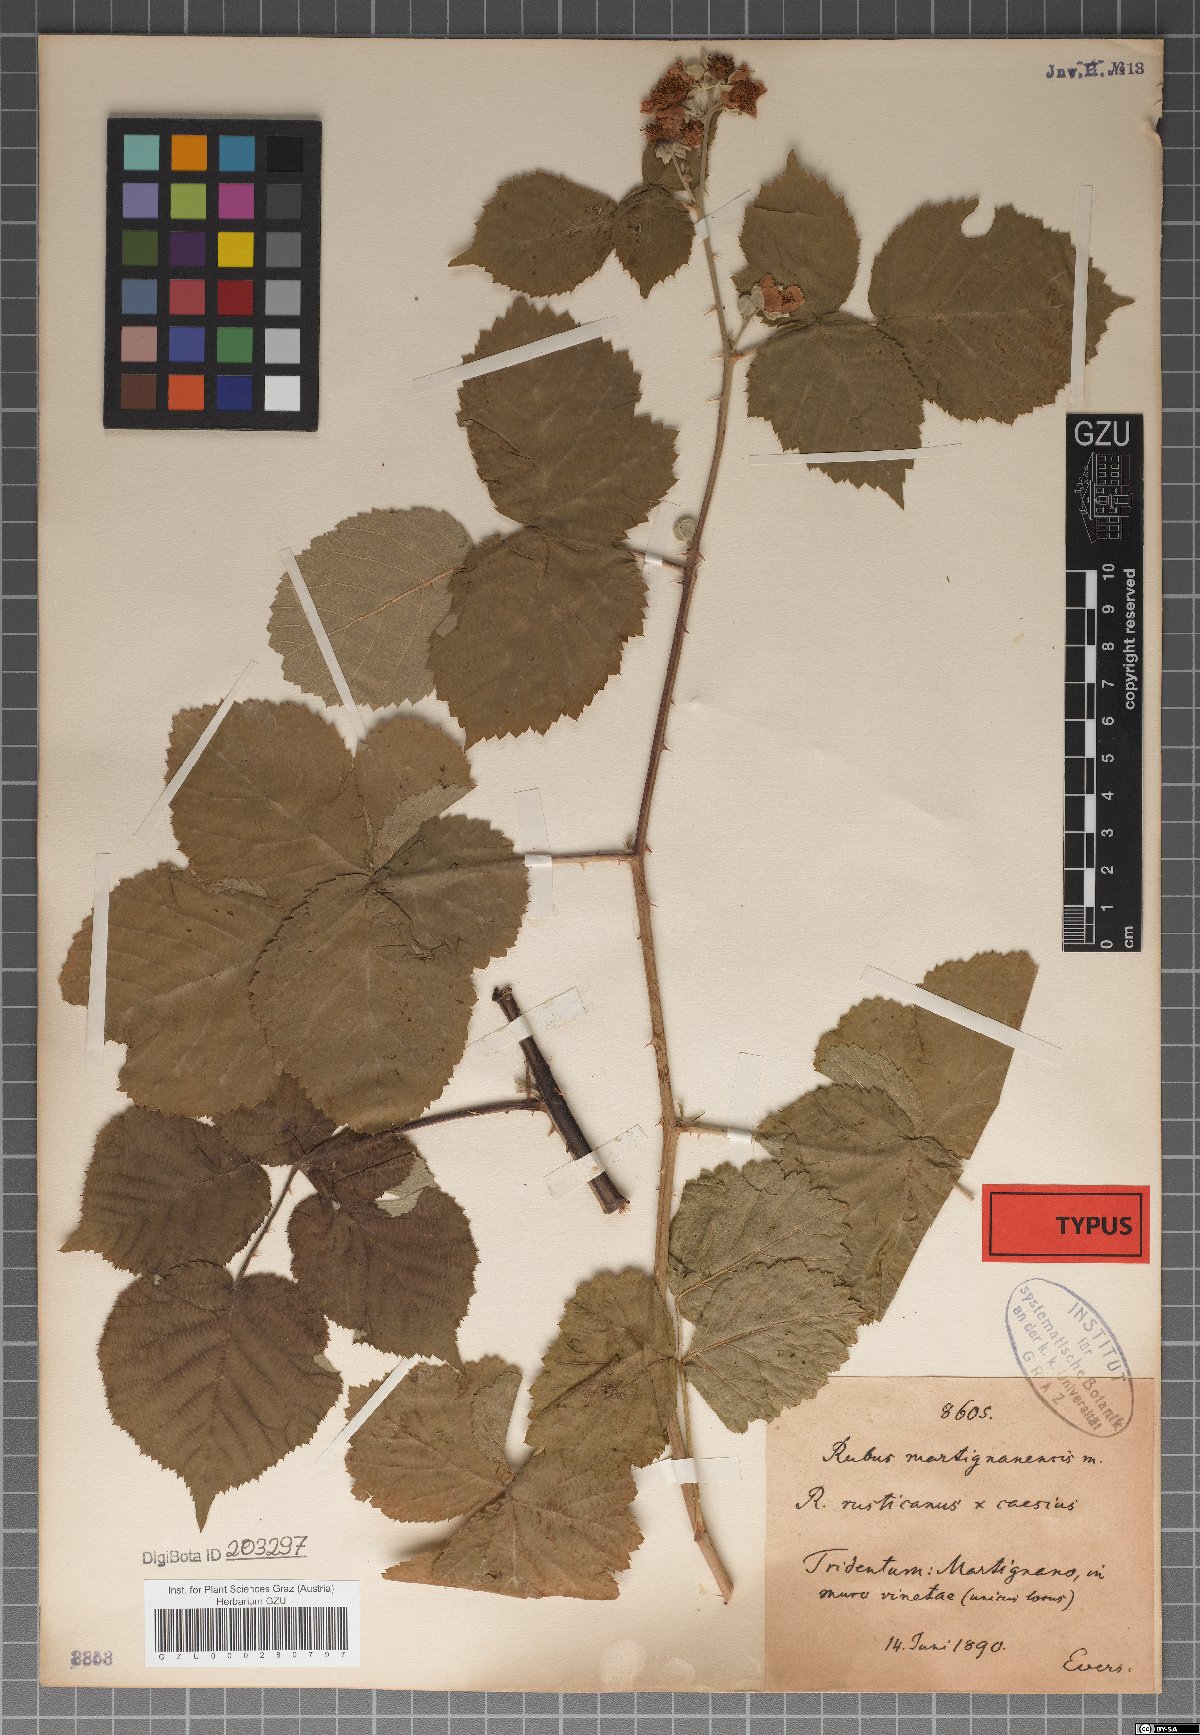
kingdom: Plantae
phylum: Tracheophyta
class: Magnoliopsida
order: Rosales
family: Rosaceae
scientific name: Rosaceae
